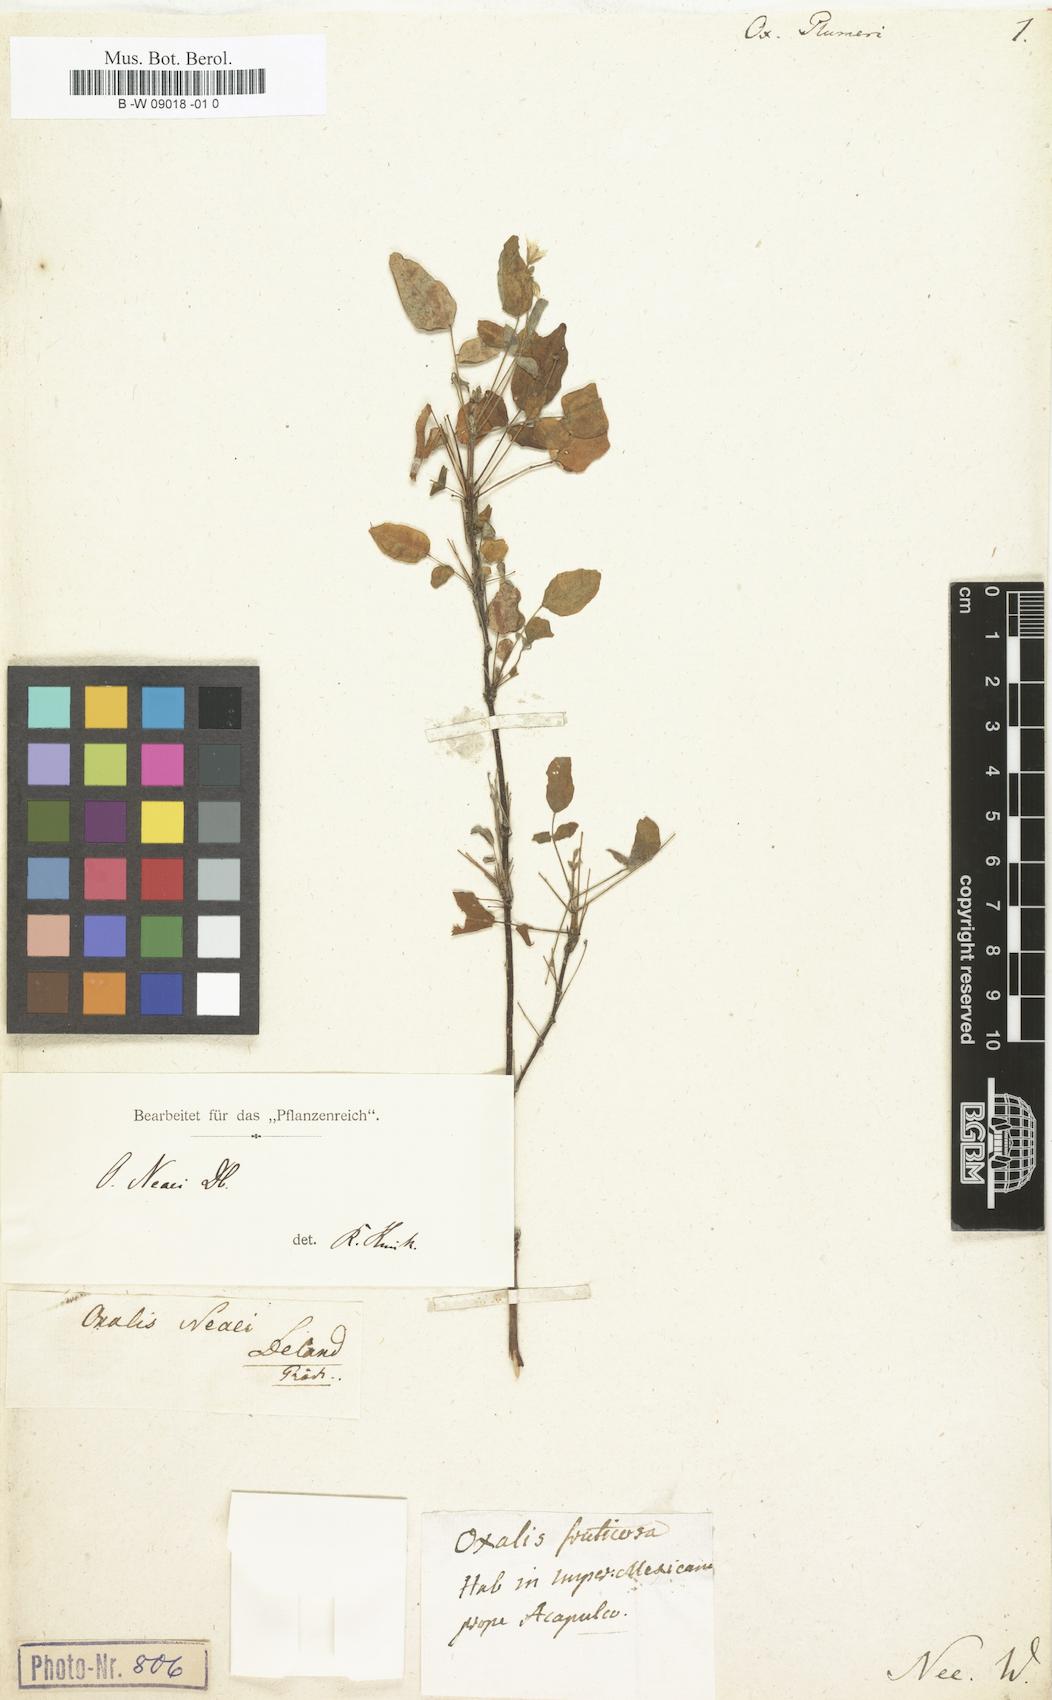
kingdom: Plantae
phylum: Tracheophyta
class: Magnoliopsida
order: Oxalidales
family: Oxalidaceae
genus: Oxalis
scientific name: Oxalis
